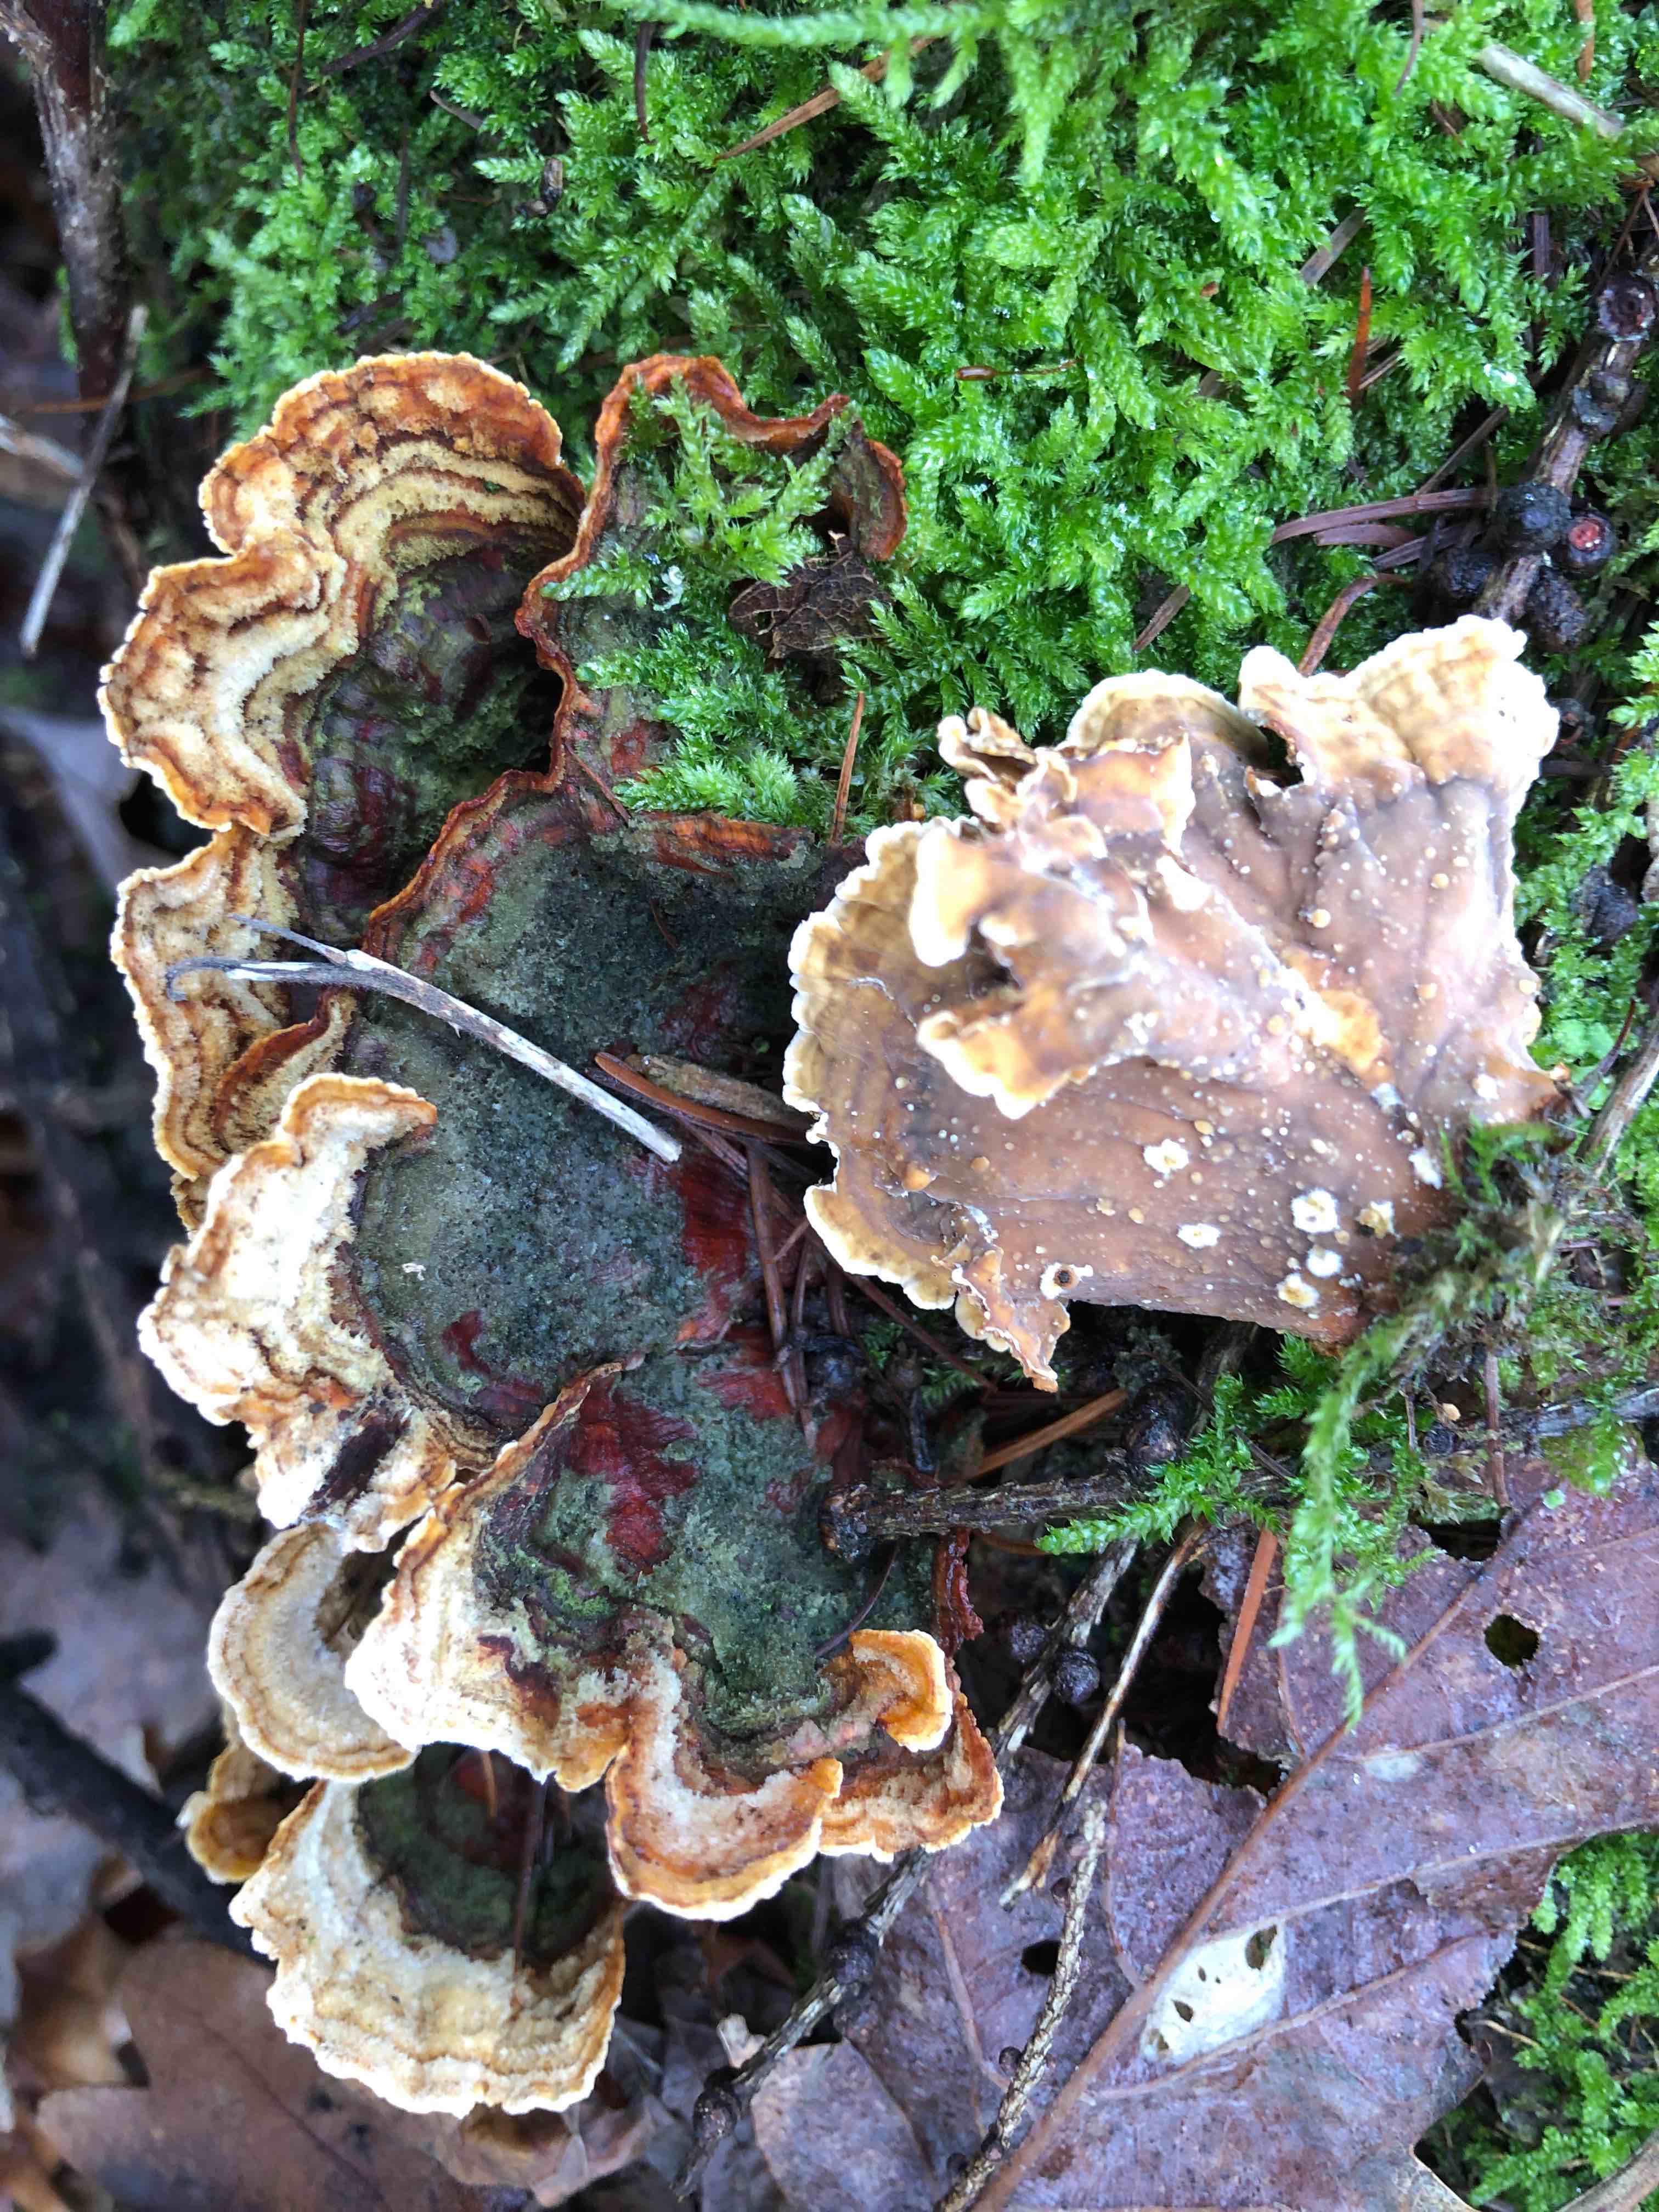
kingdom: Fungi
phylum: Basidiomycota
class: Agaricomycetes
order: Russulales
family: Stereaceae
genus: Stereum
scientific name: Stereum hirsutum
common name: håret lædersvamp
